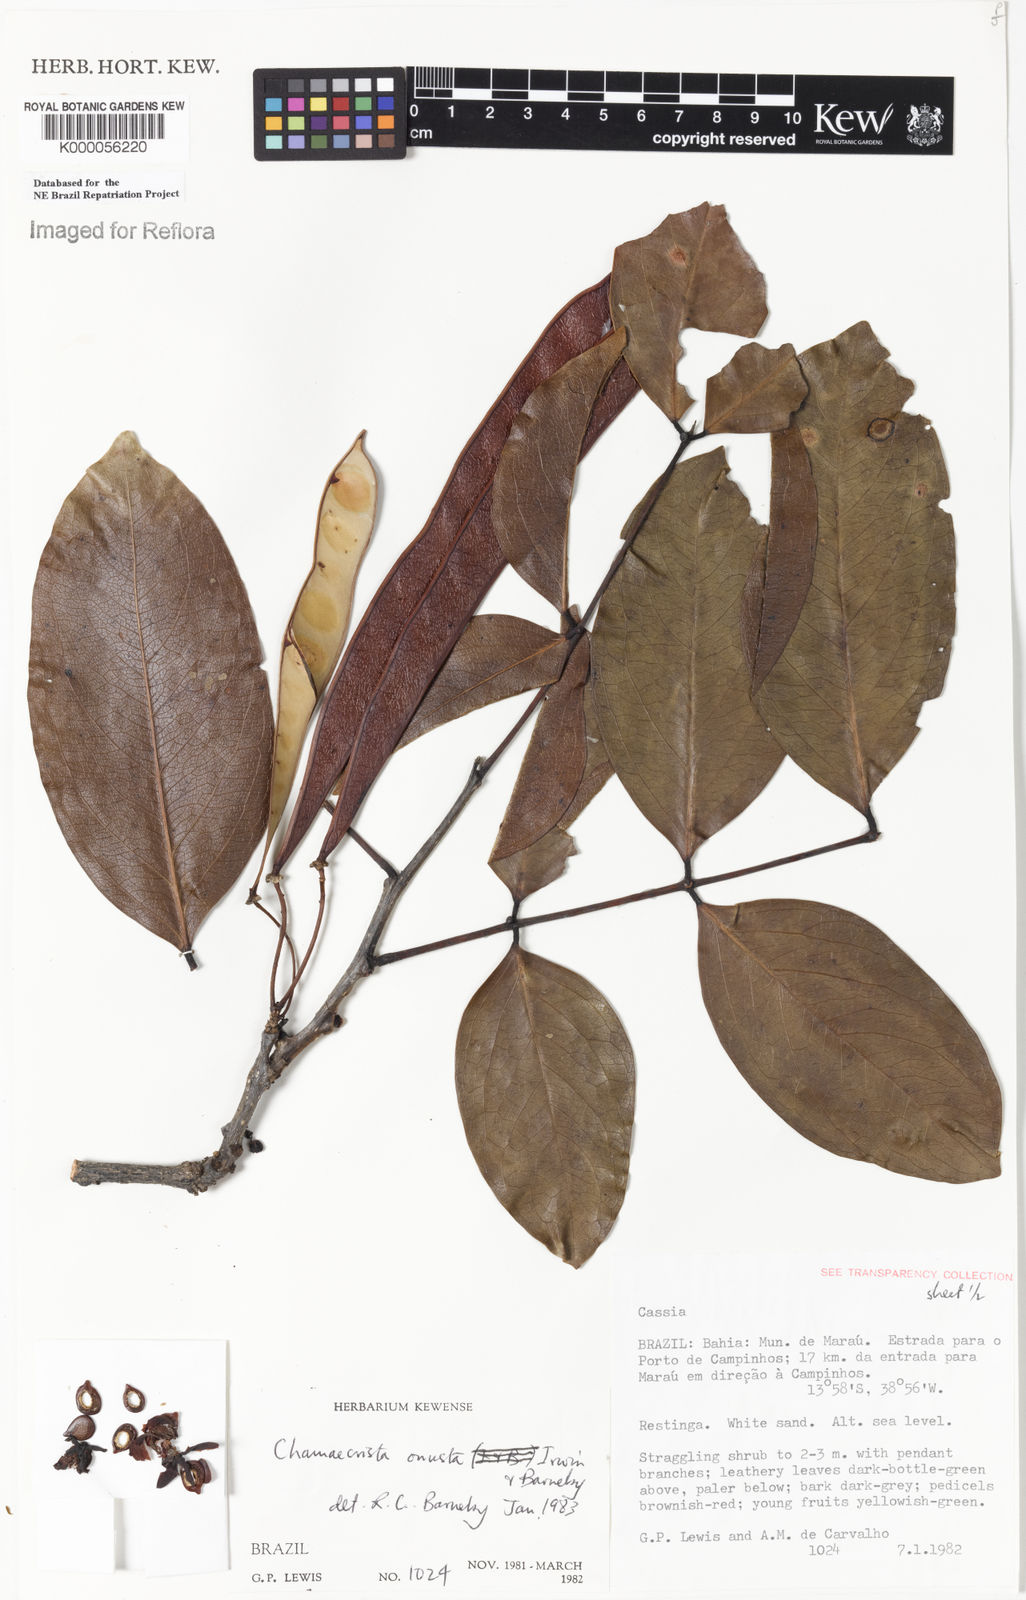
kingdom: Plantae
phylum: Tracheophyta
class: Magnoliopsida
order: Fabales
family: Fabaceae
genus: Chamaecrista
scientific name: Chamaecrista onusta
